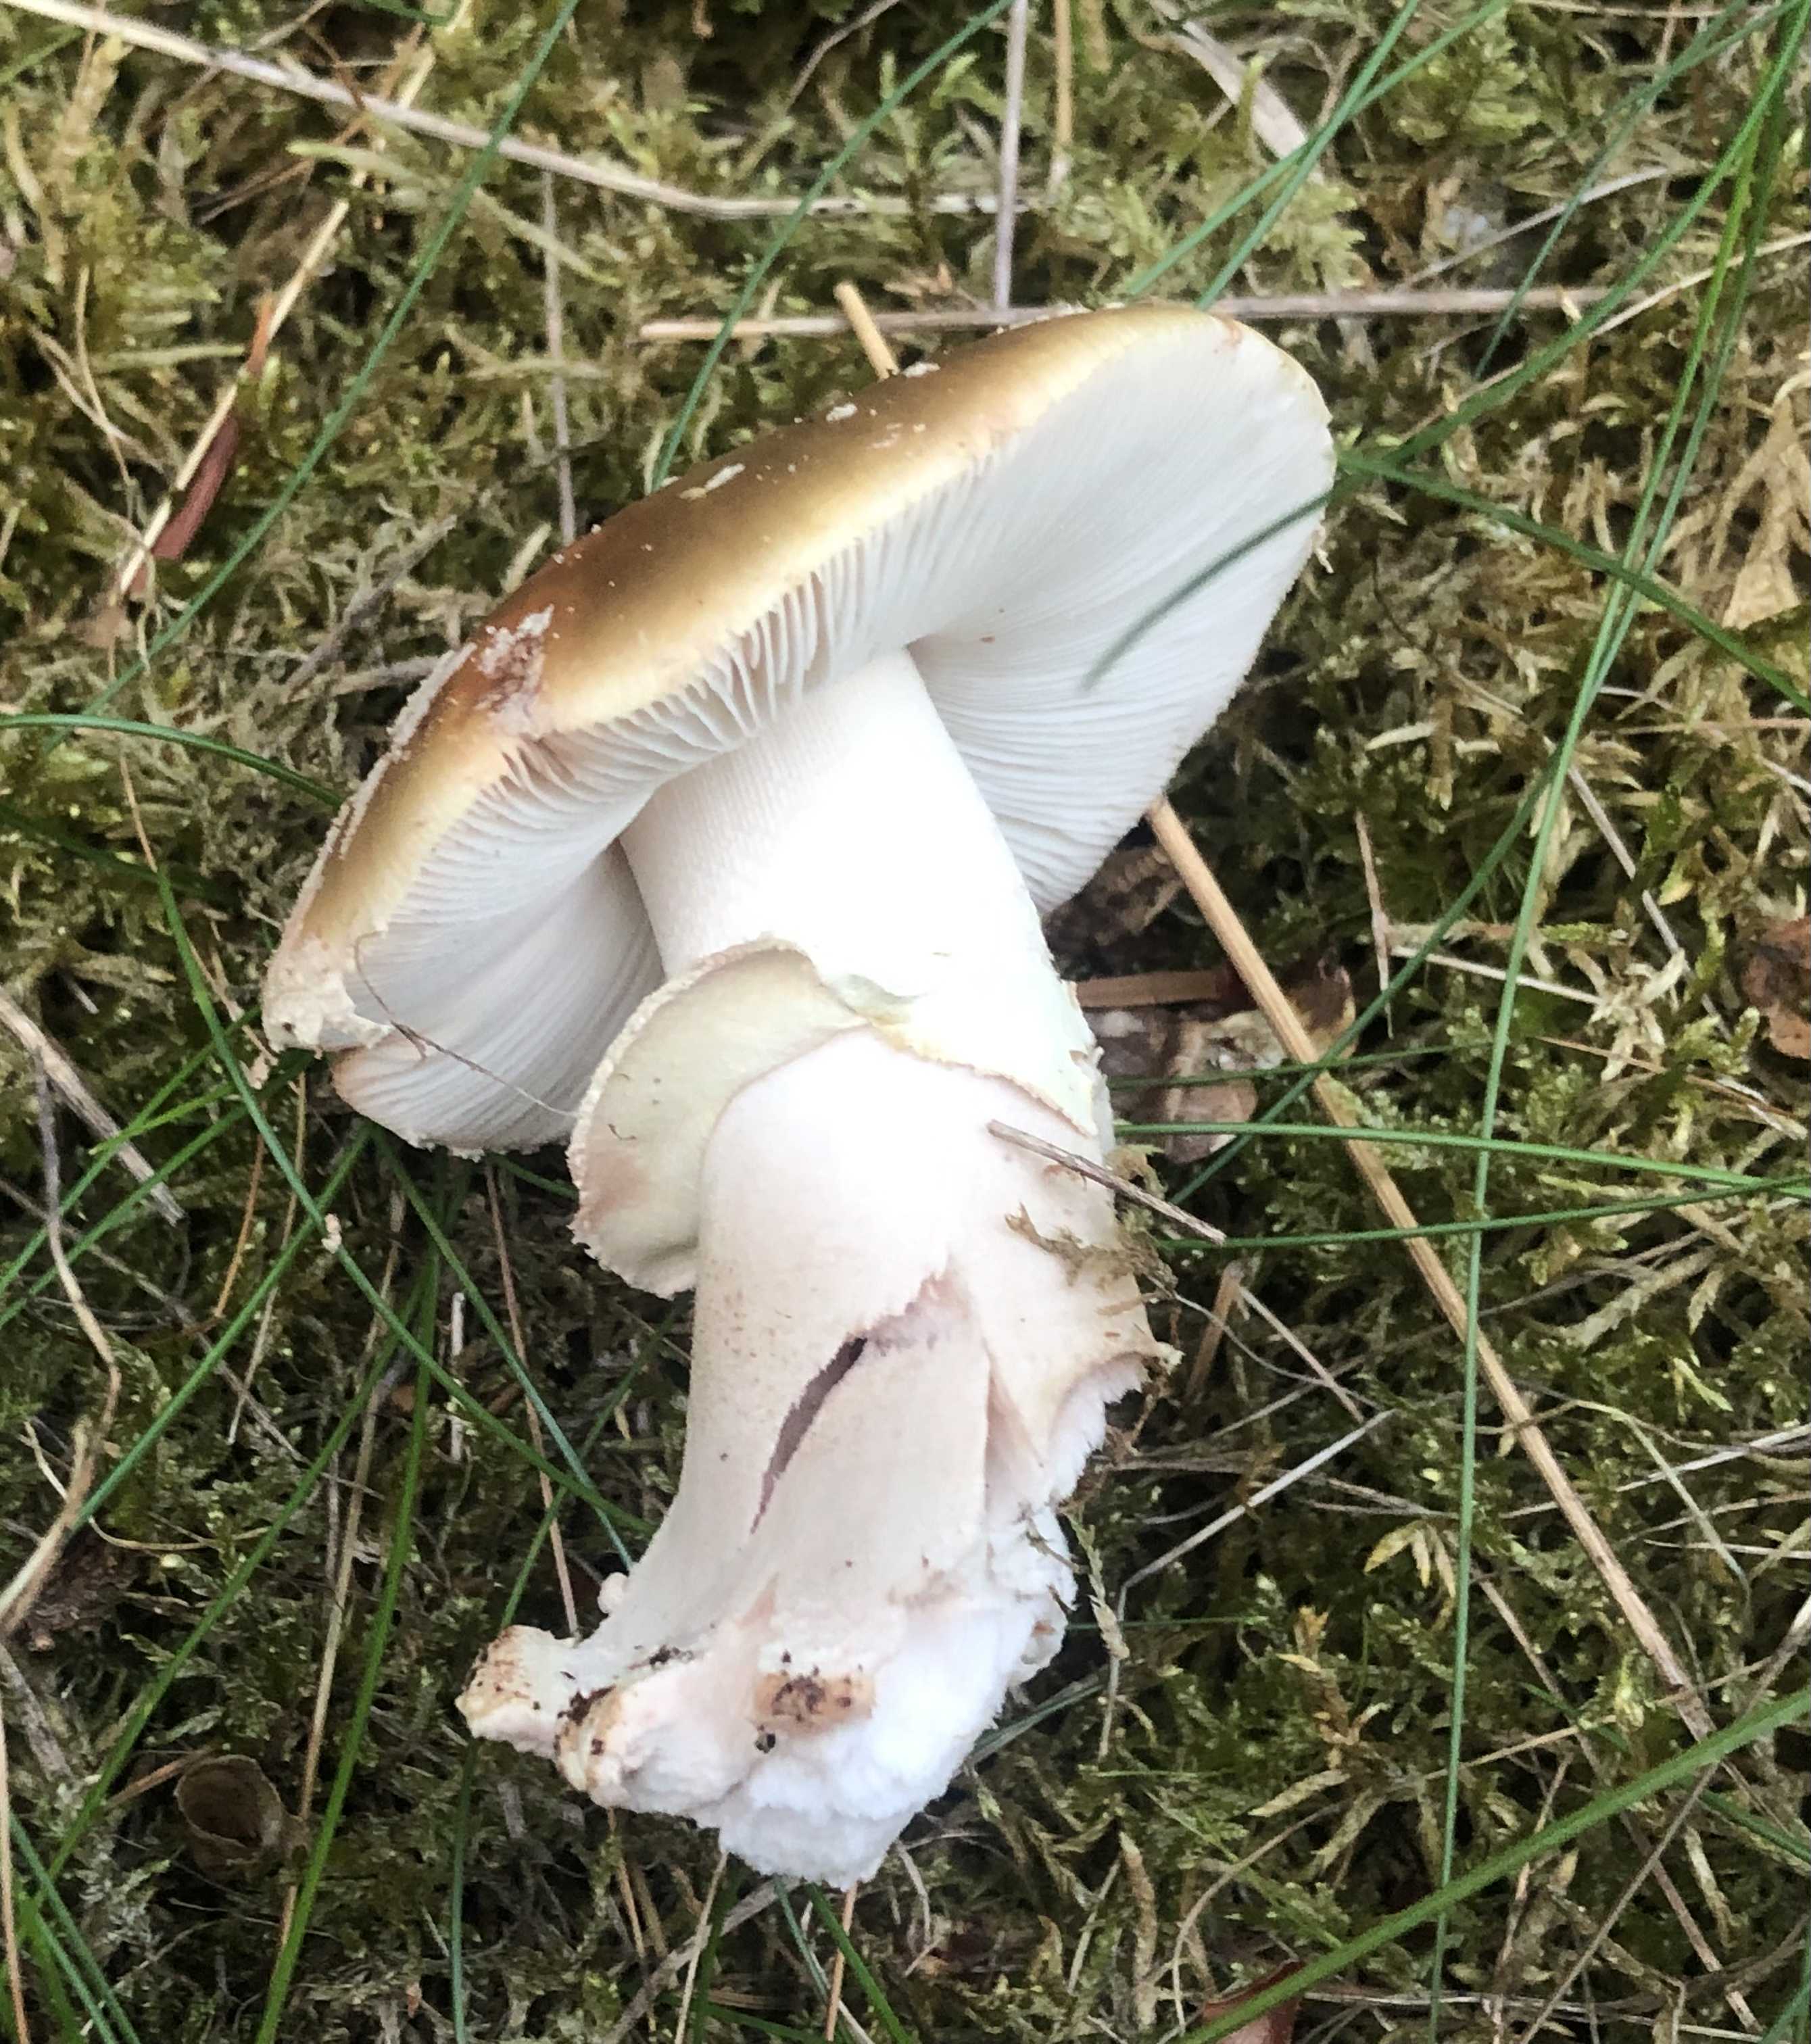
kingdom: Fungi
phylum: Basidiomycota
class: Agaricomycetes
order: Agaricales
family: Amanitaceae
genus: Amanita
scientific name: Amanita rubescens
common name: rødmende fluesvamp
